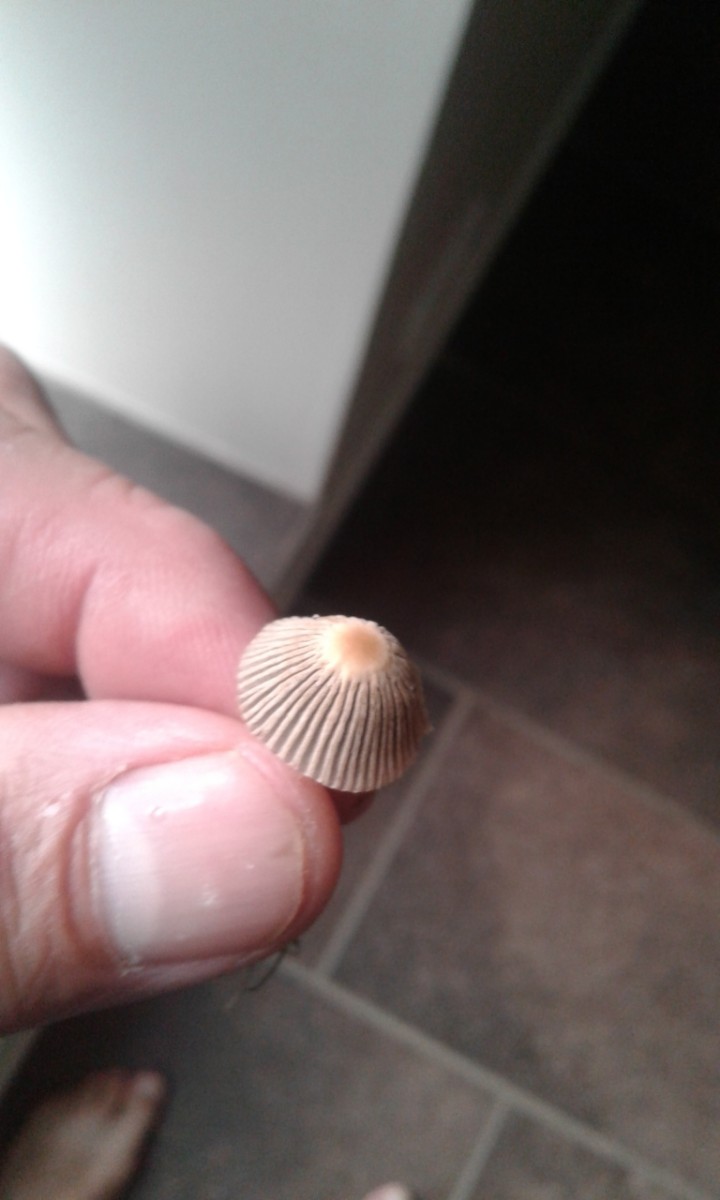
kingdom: Fungi
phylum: Basidiomycota
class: Agaricomycetes
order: Agaricales
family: Psathyrellaceae
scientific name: Psathyrellaceae
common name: mørkhatfamilien
